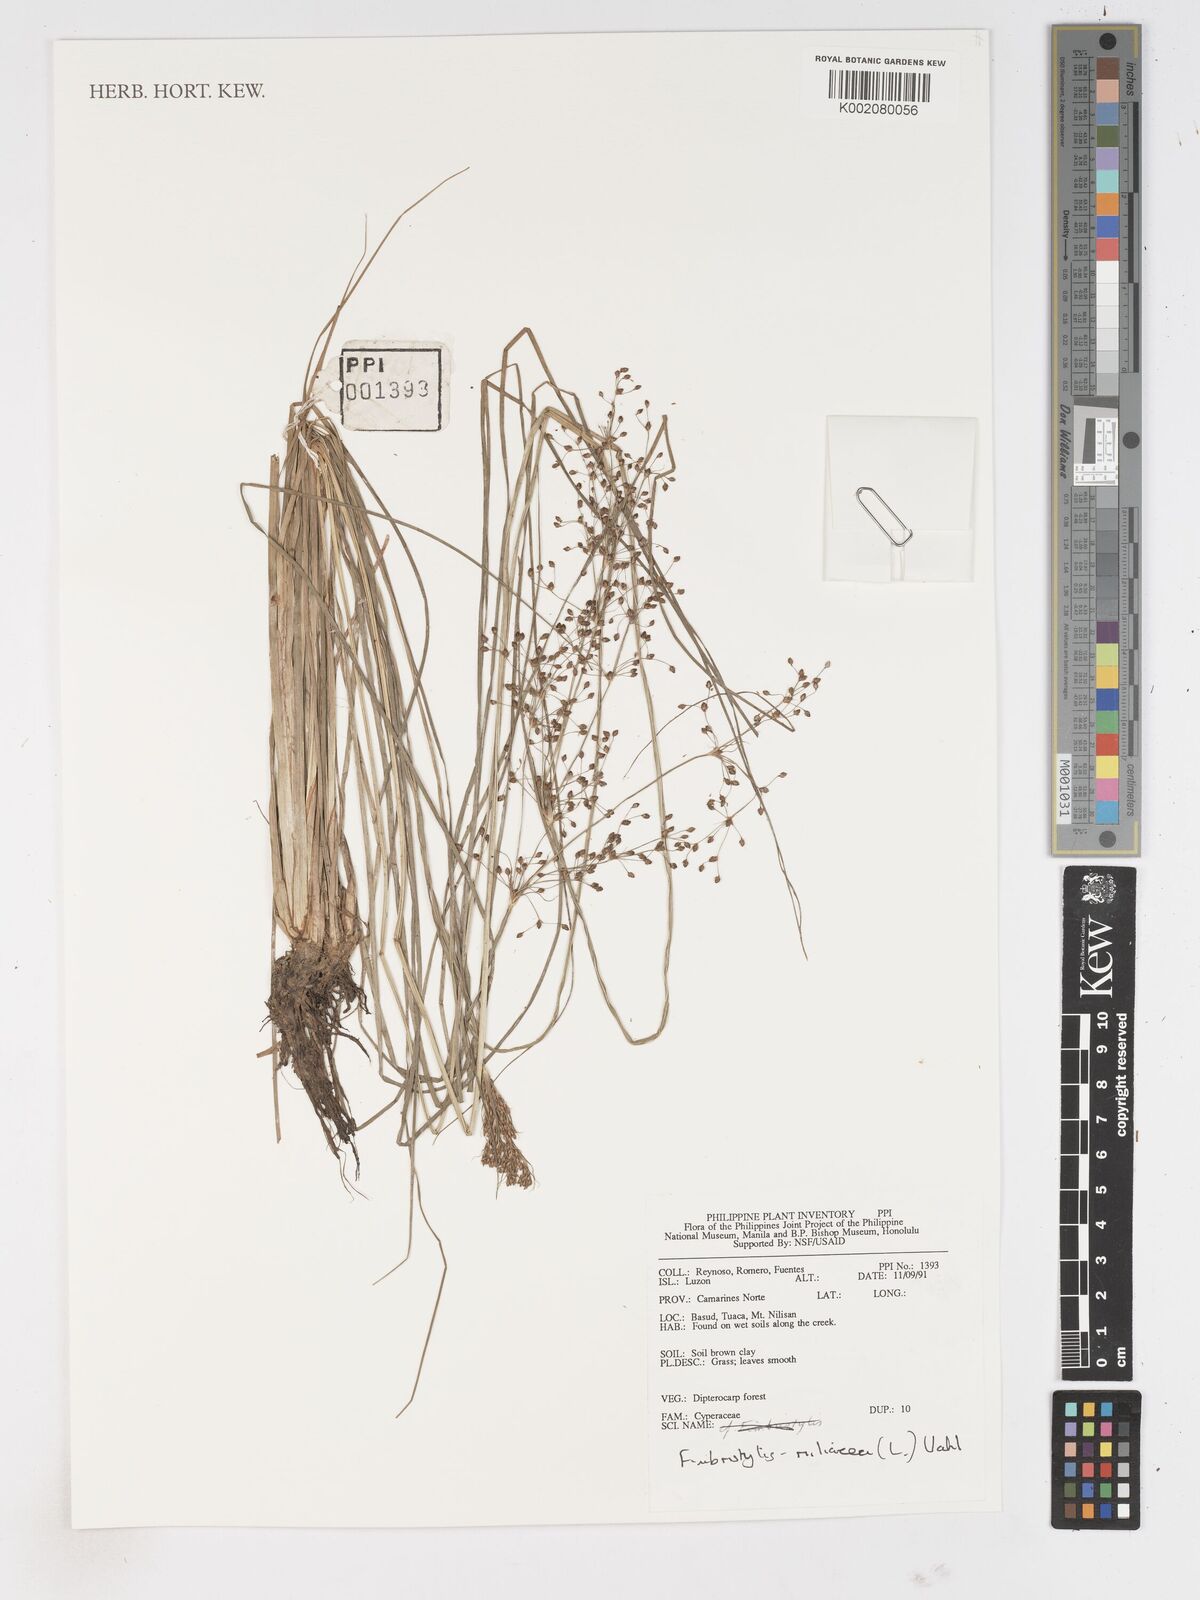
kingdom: Plantae
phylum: Tracheophyta
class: Liliopsida
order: Poales
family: Cyperaceae
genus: Fimbristylis
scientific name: Fimbristylis quinquangularis
